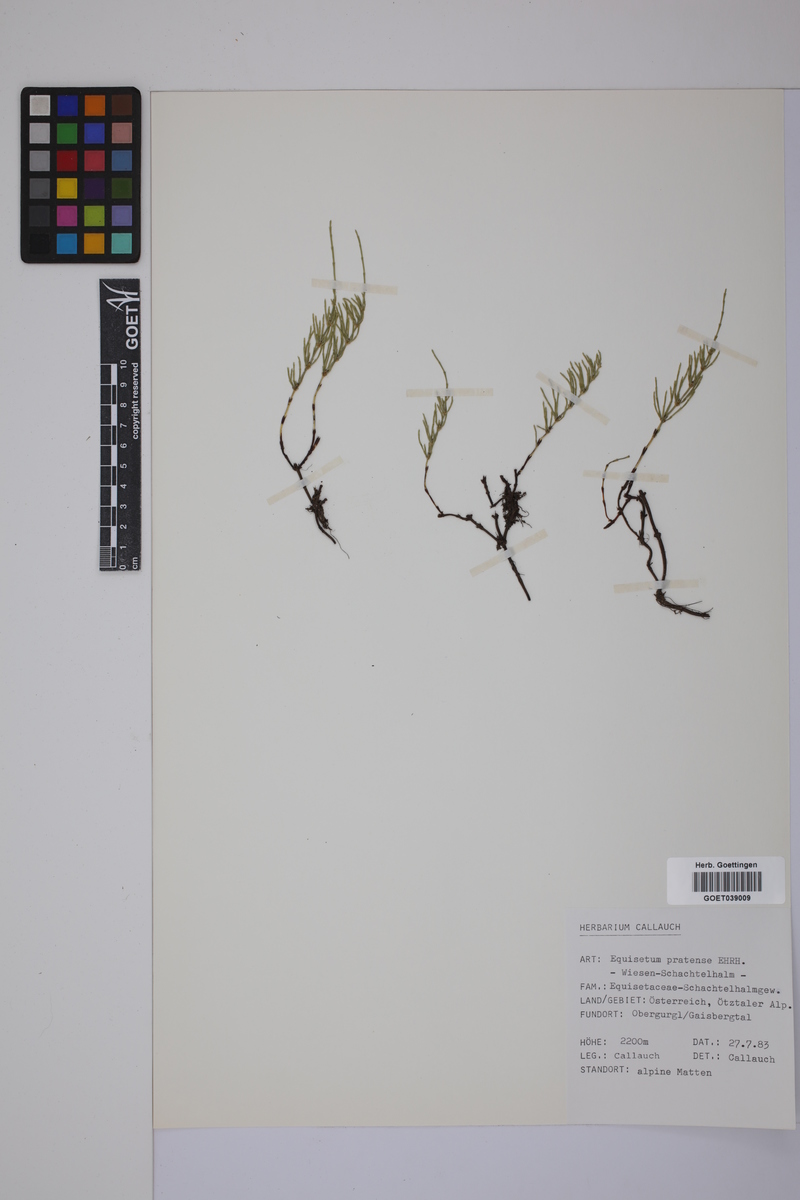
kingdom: Plantae
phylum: Tracheophyta
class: Polypodiopsida
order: Equisetales
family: Equisetaceae
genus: Equisetum
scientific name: Equisetum pratense
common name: Meadow horsetail
